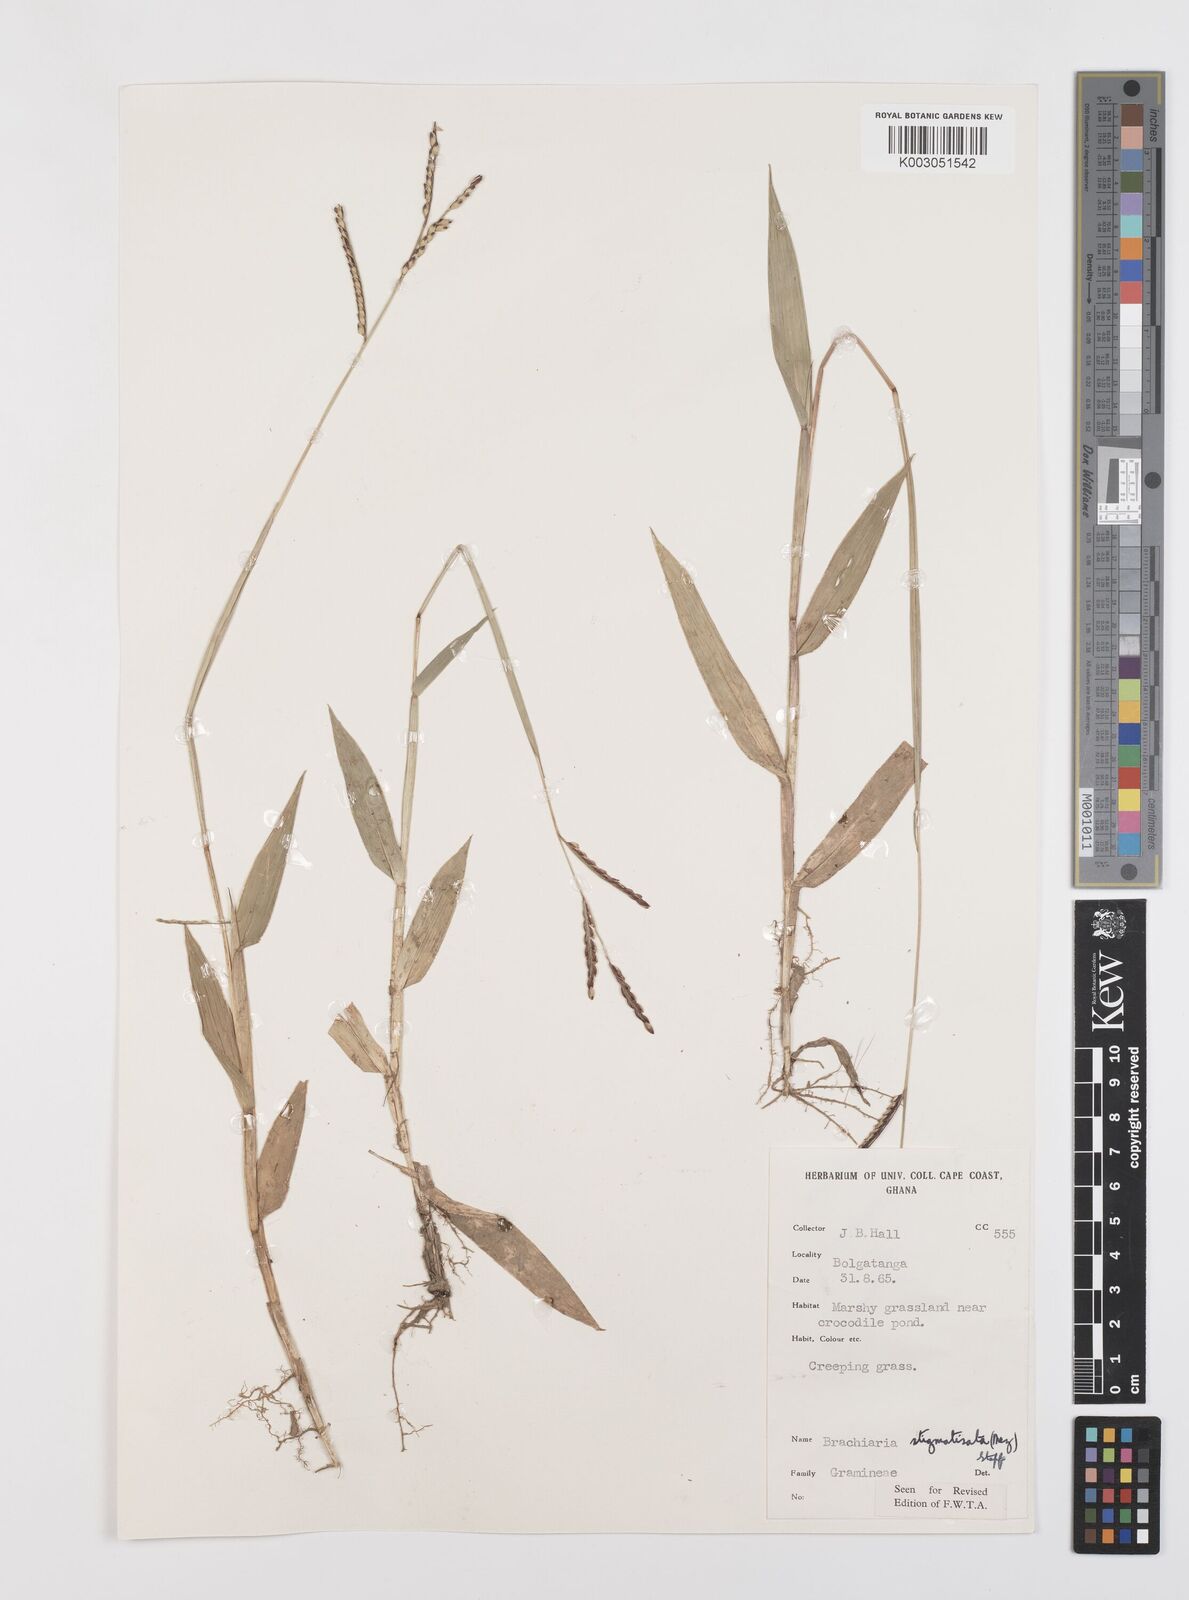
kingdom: Plantae
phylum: Tracheophyta
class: Liliopsida
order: Poales
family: Poaceae
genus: Urochloa
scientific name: Urochloa stigmatisata
